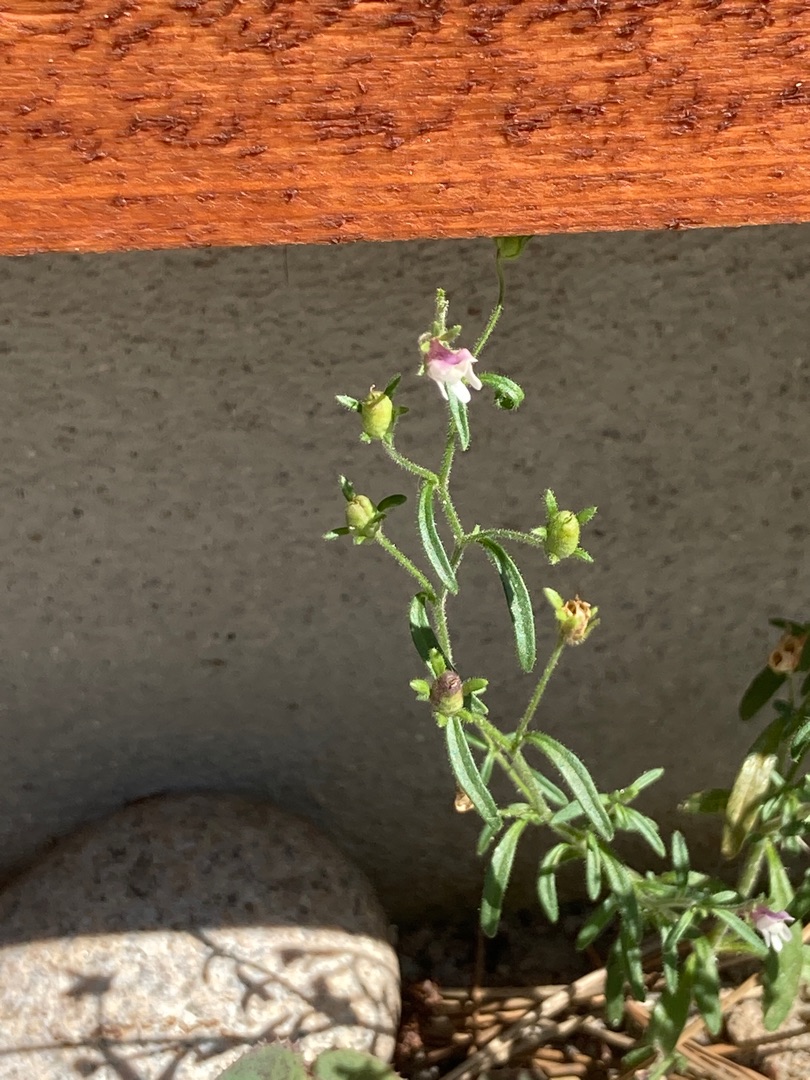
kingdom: Plantae
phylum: Tracheophyta
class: Magnoliopsida
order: Lamiales
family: Plantaginaceae
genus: Chaenorhinum
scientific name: Chaenorhinum minus
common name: Liden torskemund
